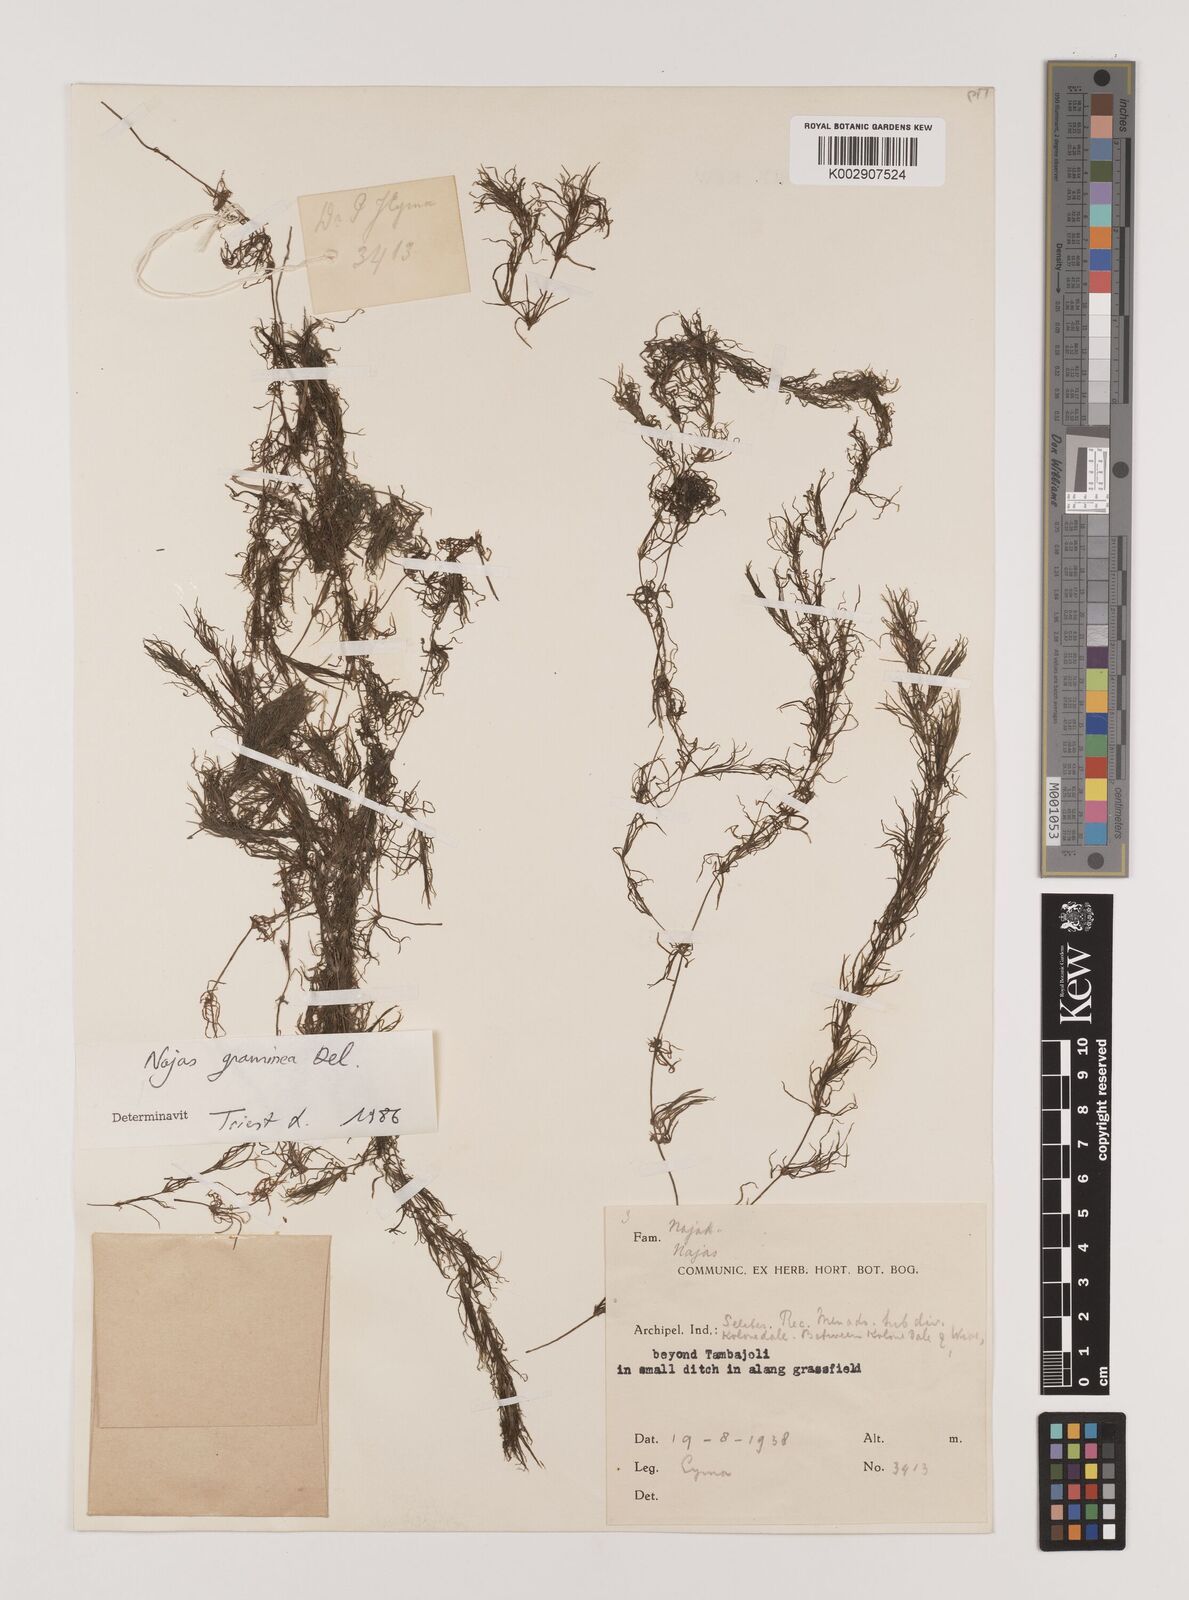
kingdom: Plantae
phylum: Tracheophyta
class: Liliopsida
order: Alismatales
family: Hydrocharitaceae
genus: Najas
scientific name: Najas graminea
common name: Ricefield waternymph
